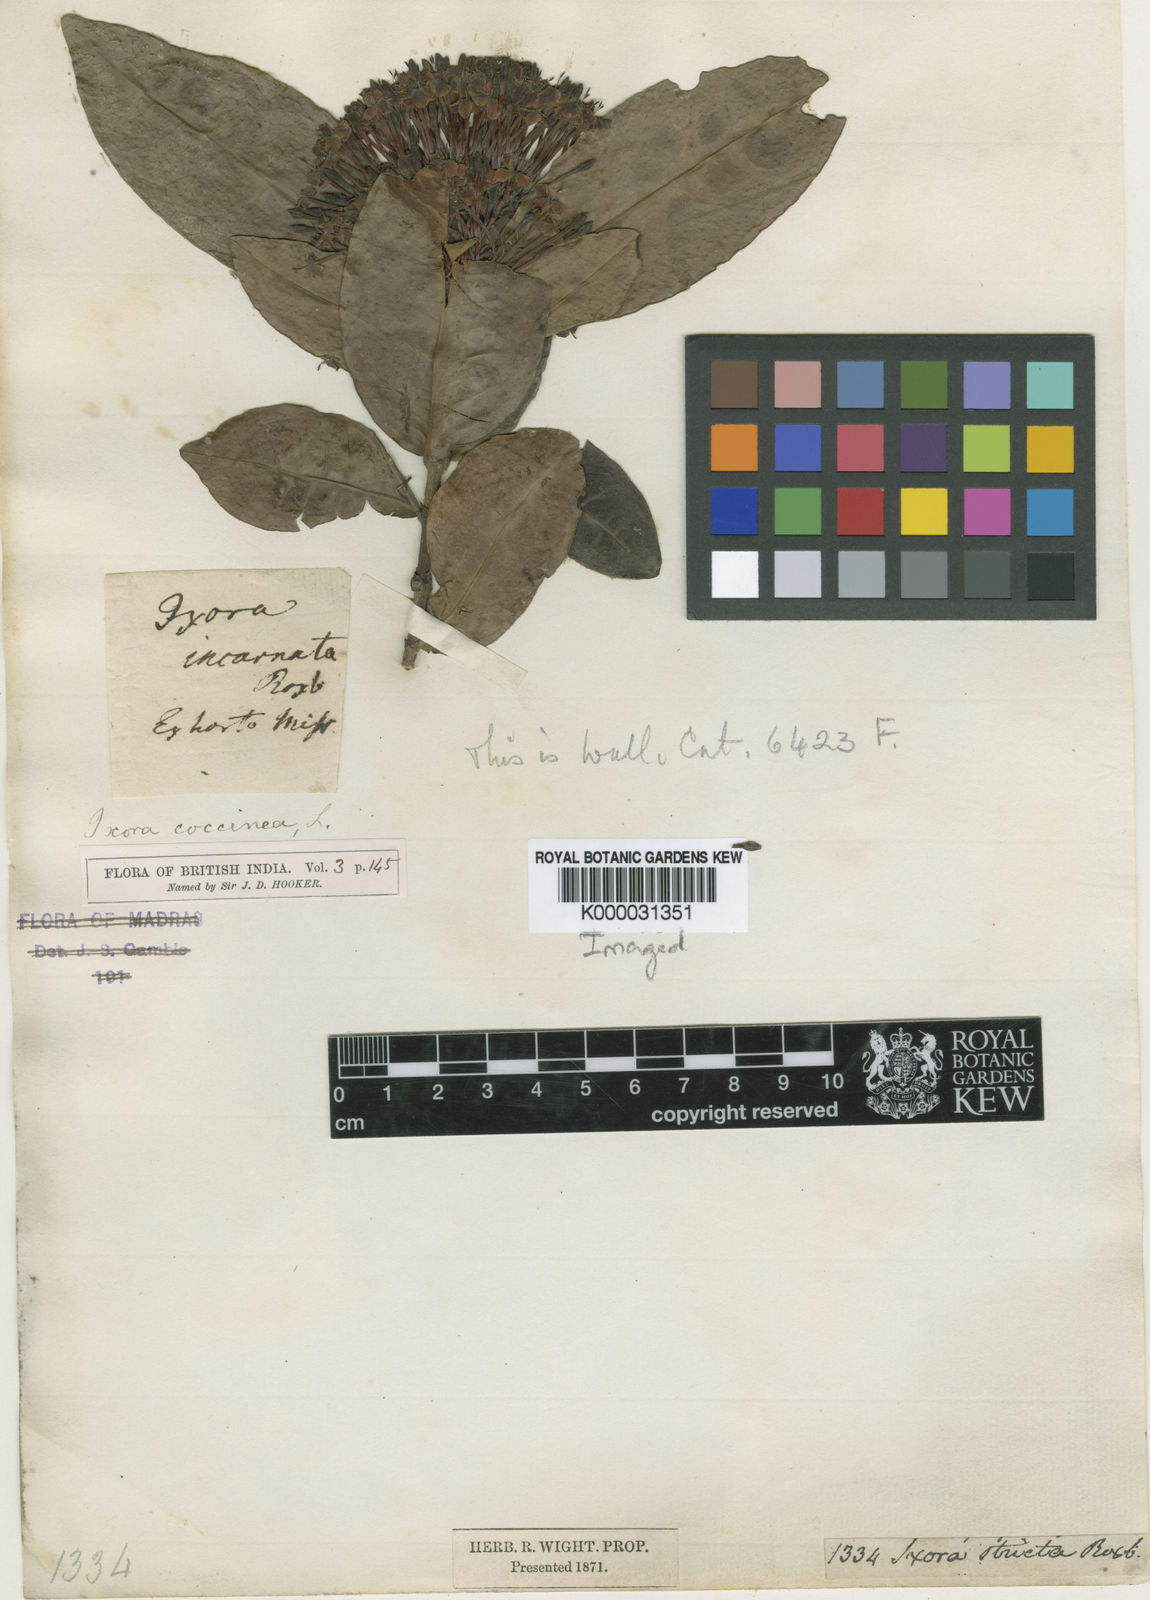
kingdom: Plantae
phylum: Tracheophyta
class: Magnoliopsida
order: Gentianales
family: Rubiaceae
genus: Ixora
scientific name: Ixora chinensis
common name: Chinese ixora
